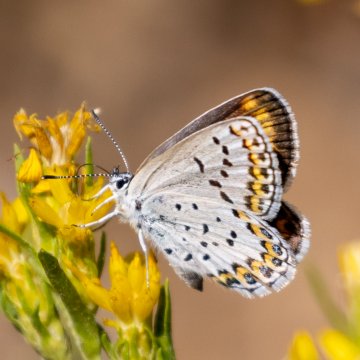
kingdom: Animalia
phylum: Arthropoda
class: Insecta
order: Lepidoptera
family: Lycaenidae
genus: Lycaeides
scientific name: Lycaeides melissa
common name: Melissa Blue
